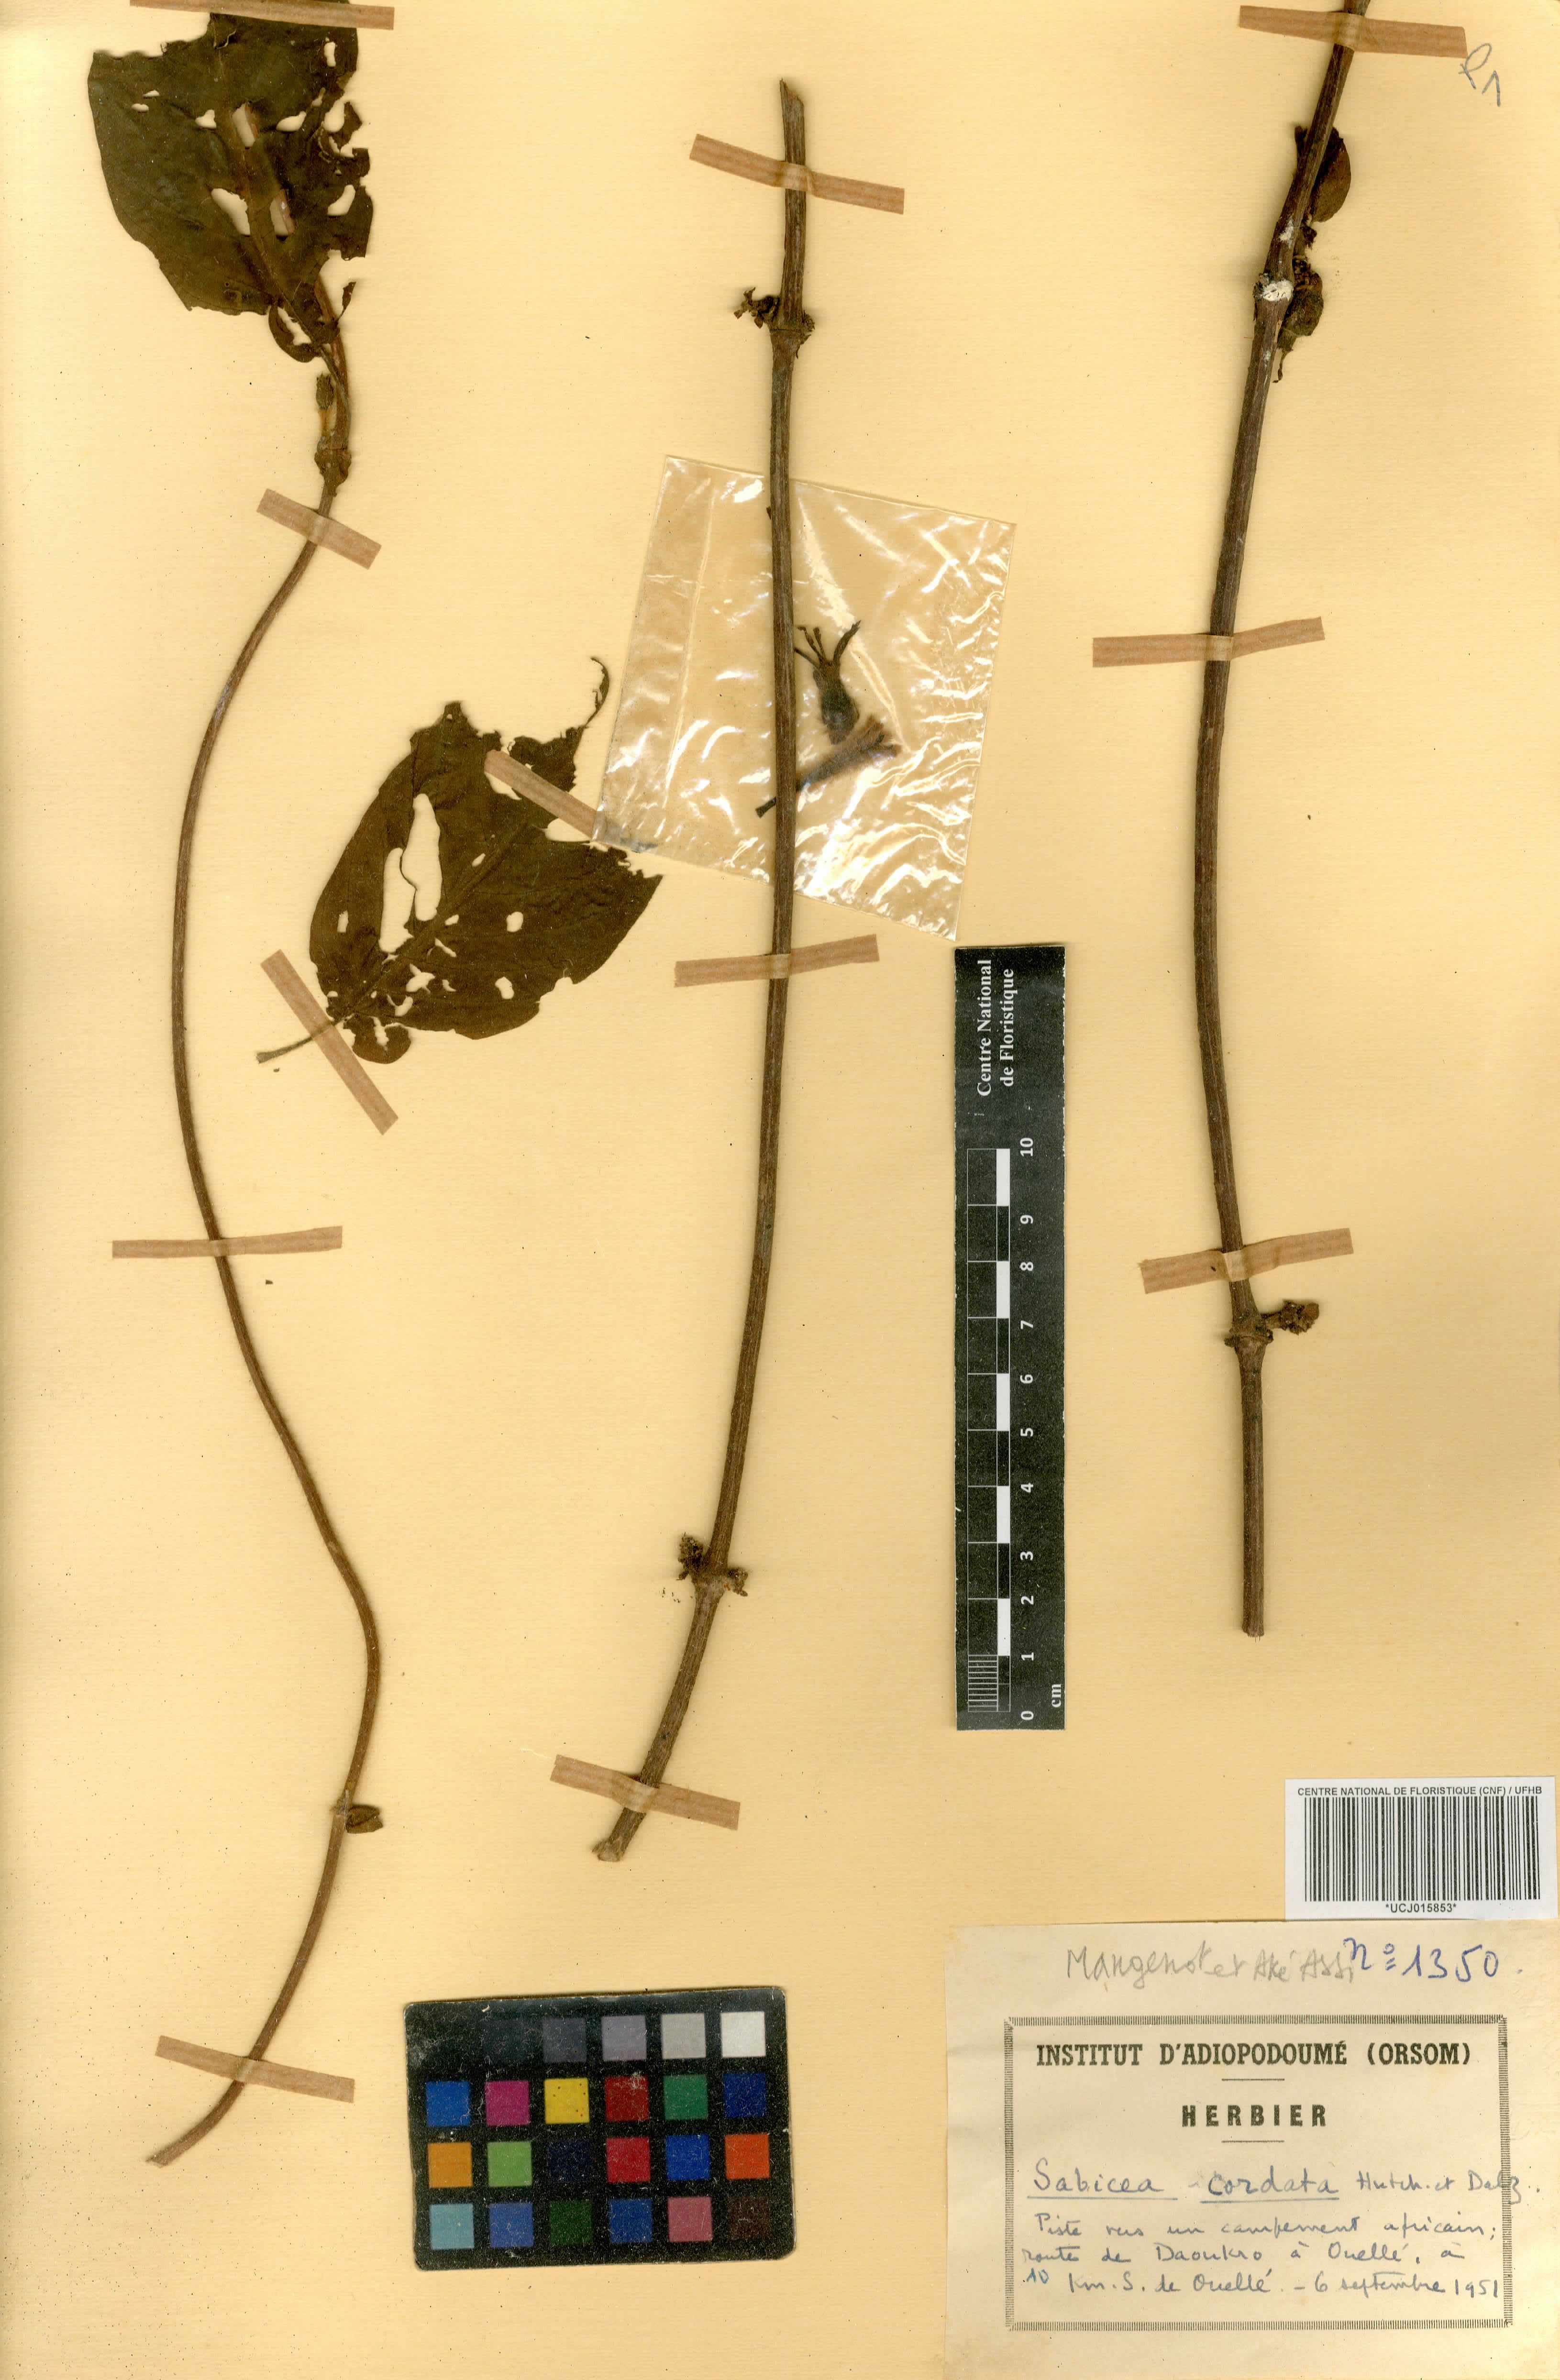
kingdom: Plantae
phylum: Tracheophyta
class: Magnoliopsida
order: Gentianales
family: Rubiaceae
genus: Sabicea
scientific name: Sabicea cordata
